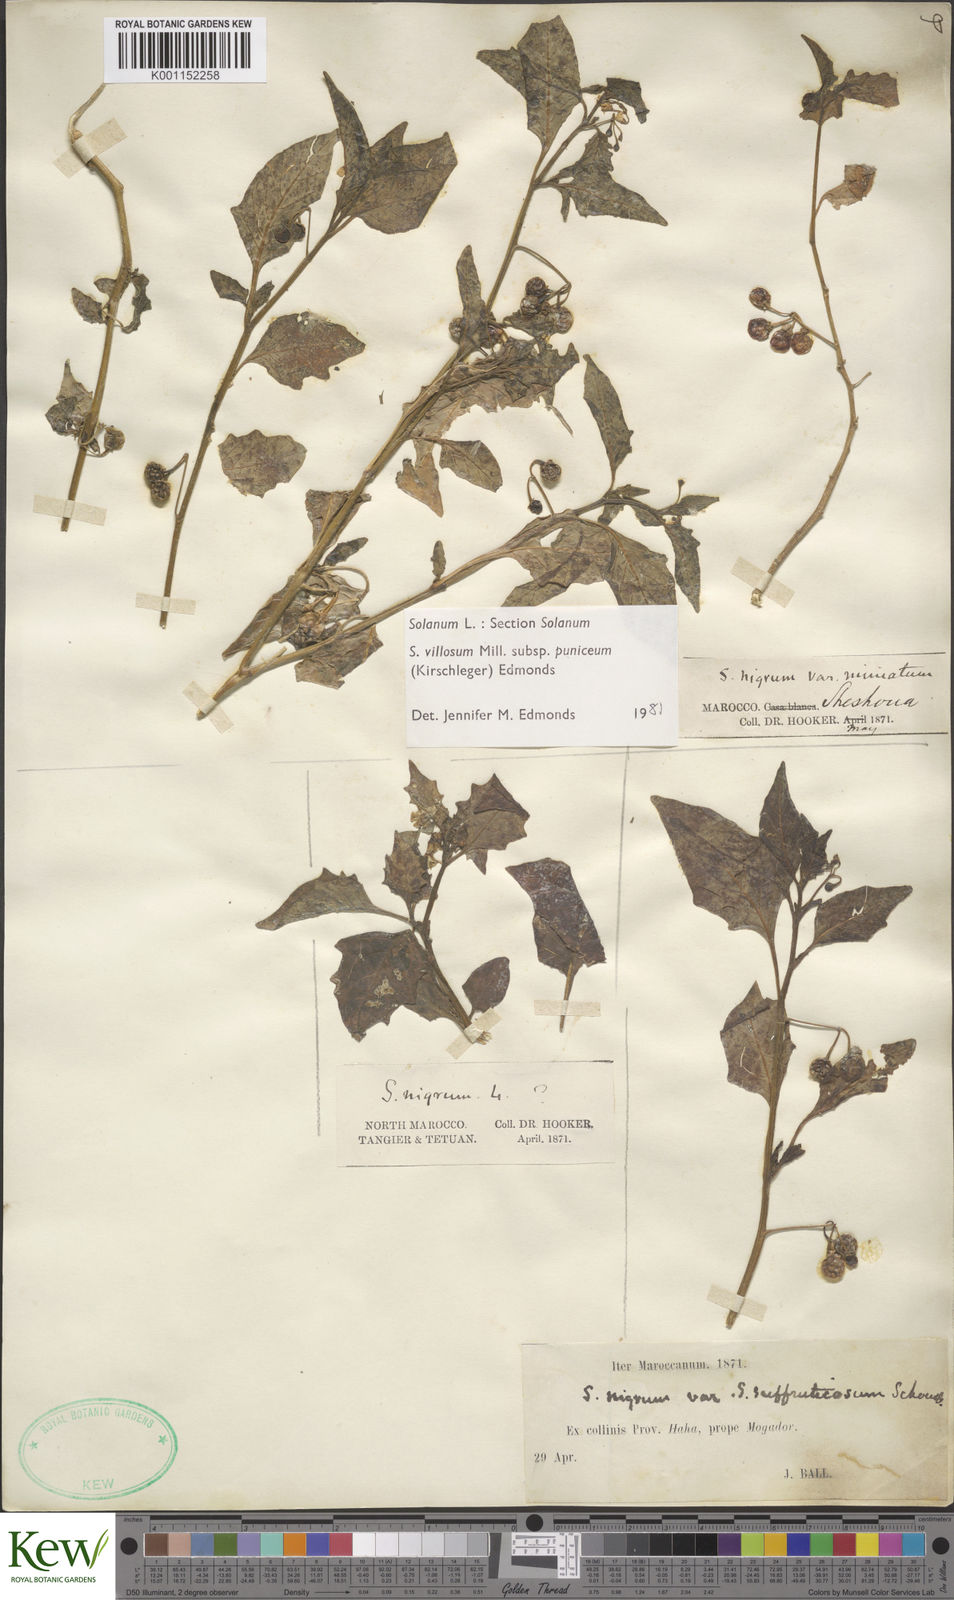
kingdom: Plantae
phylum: Tracheophyta
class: Magnoliopsida
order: Solanales
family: Solanaceae
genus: Solanum
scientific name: Solanum villosum
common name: Red nightshade
